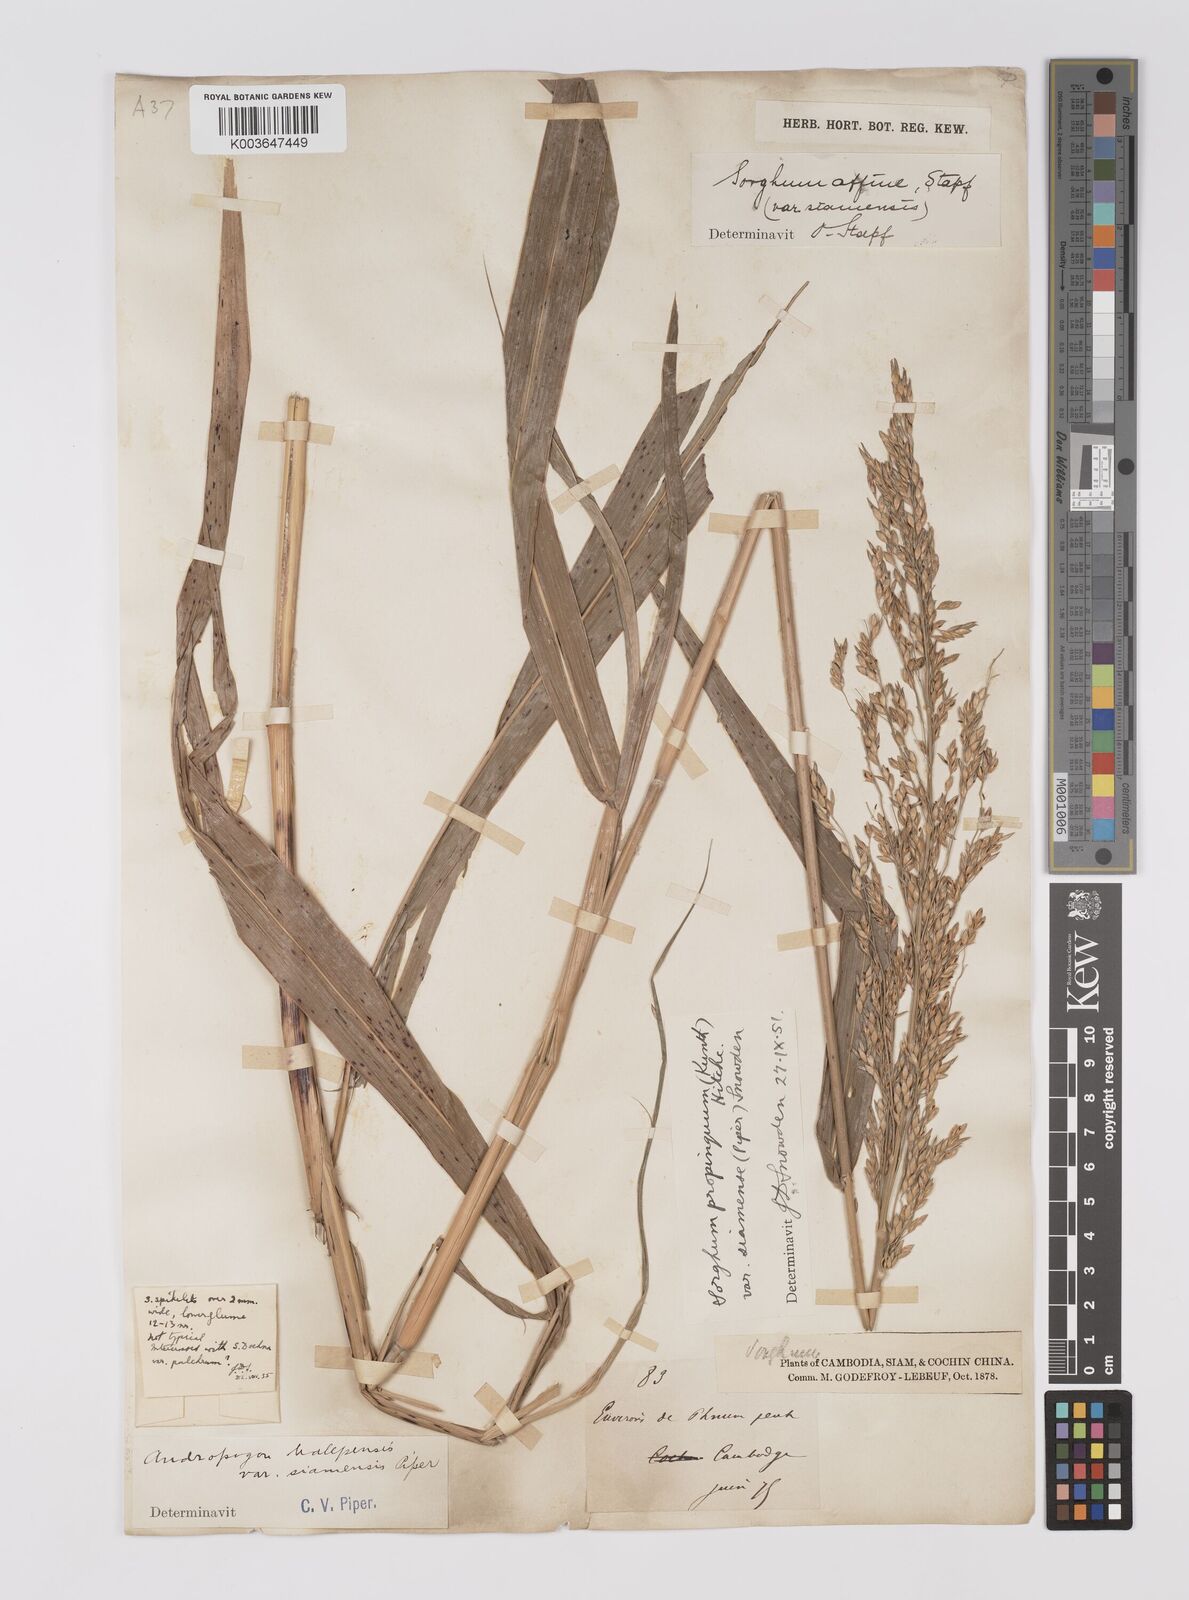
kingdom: Plantae
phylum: Tracheophyta
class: Liliopsida
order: Poales
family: Poaceae
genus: Dichanthium
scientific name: Dichanthium sericeum
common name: Silky bluestem
